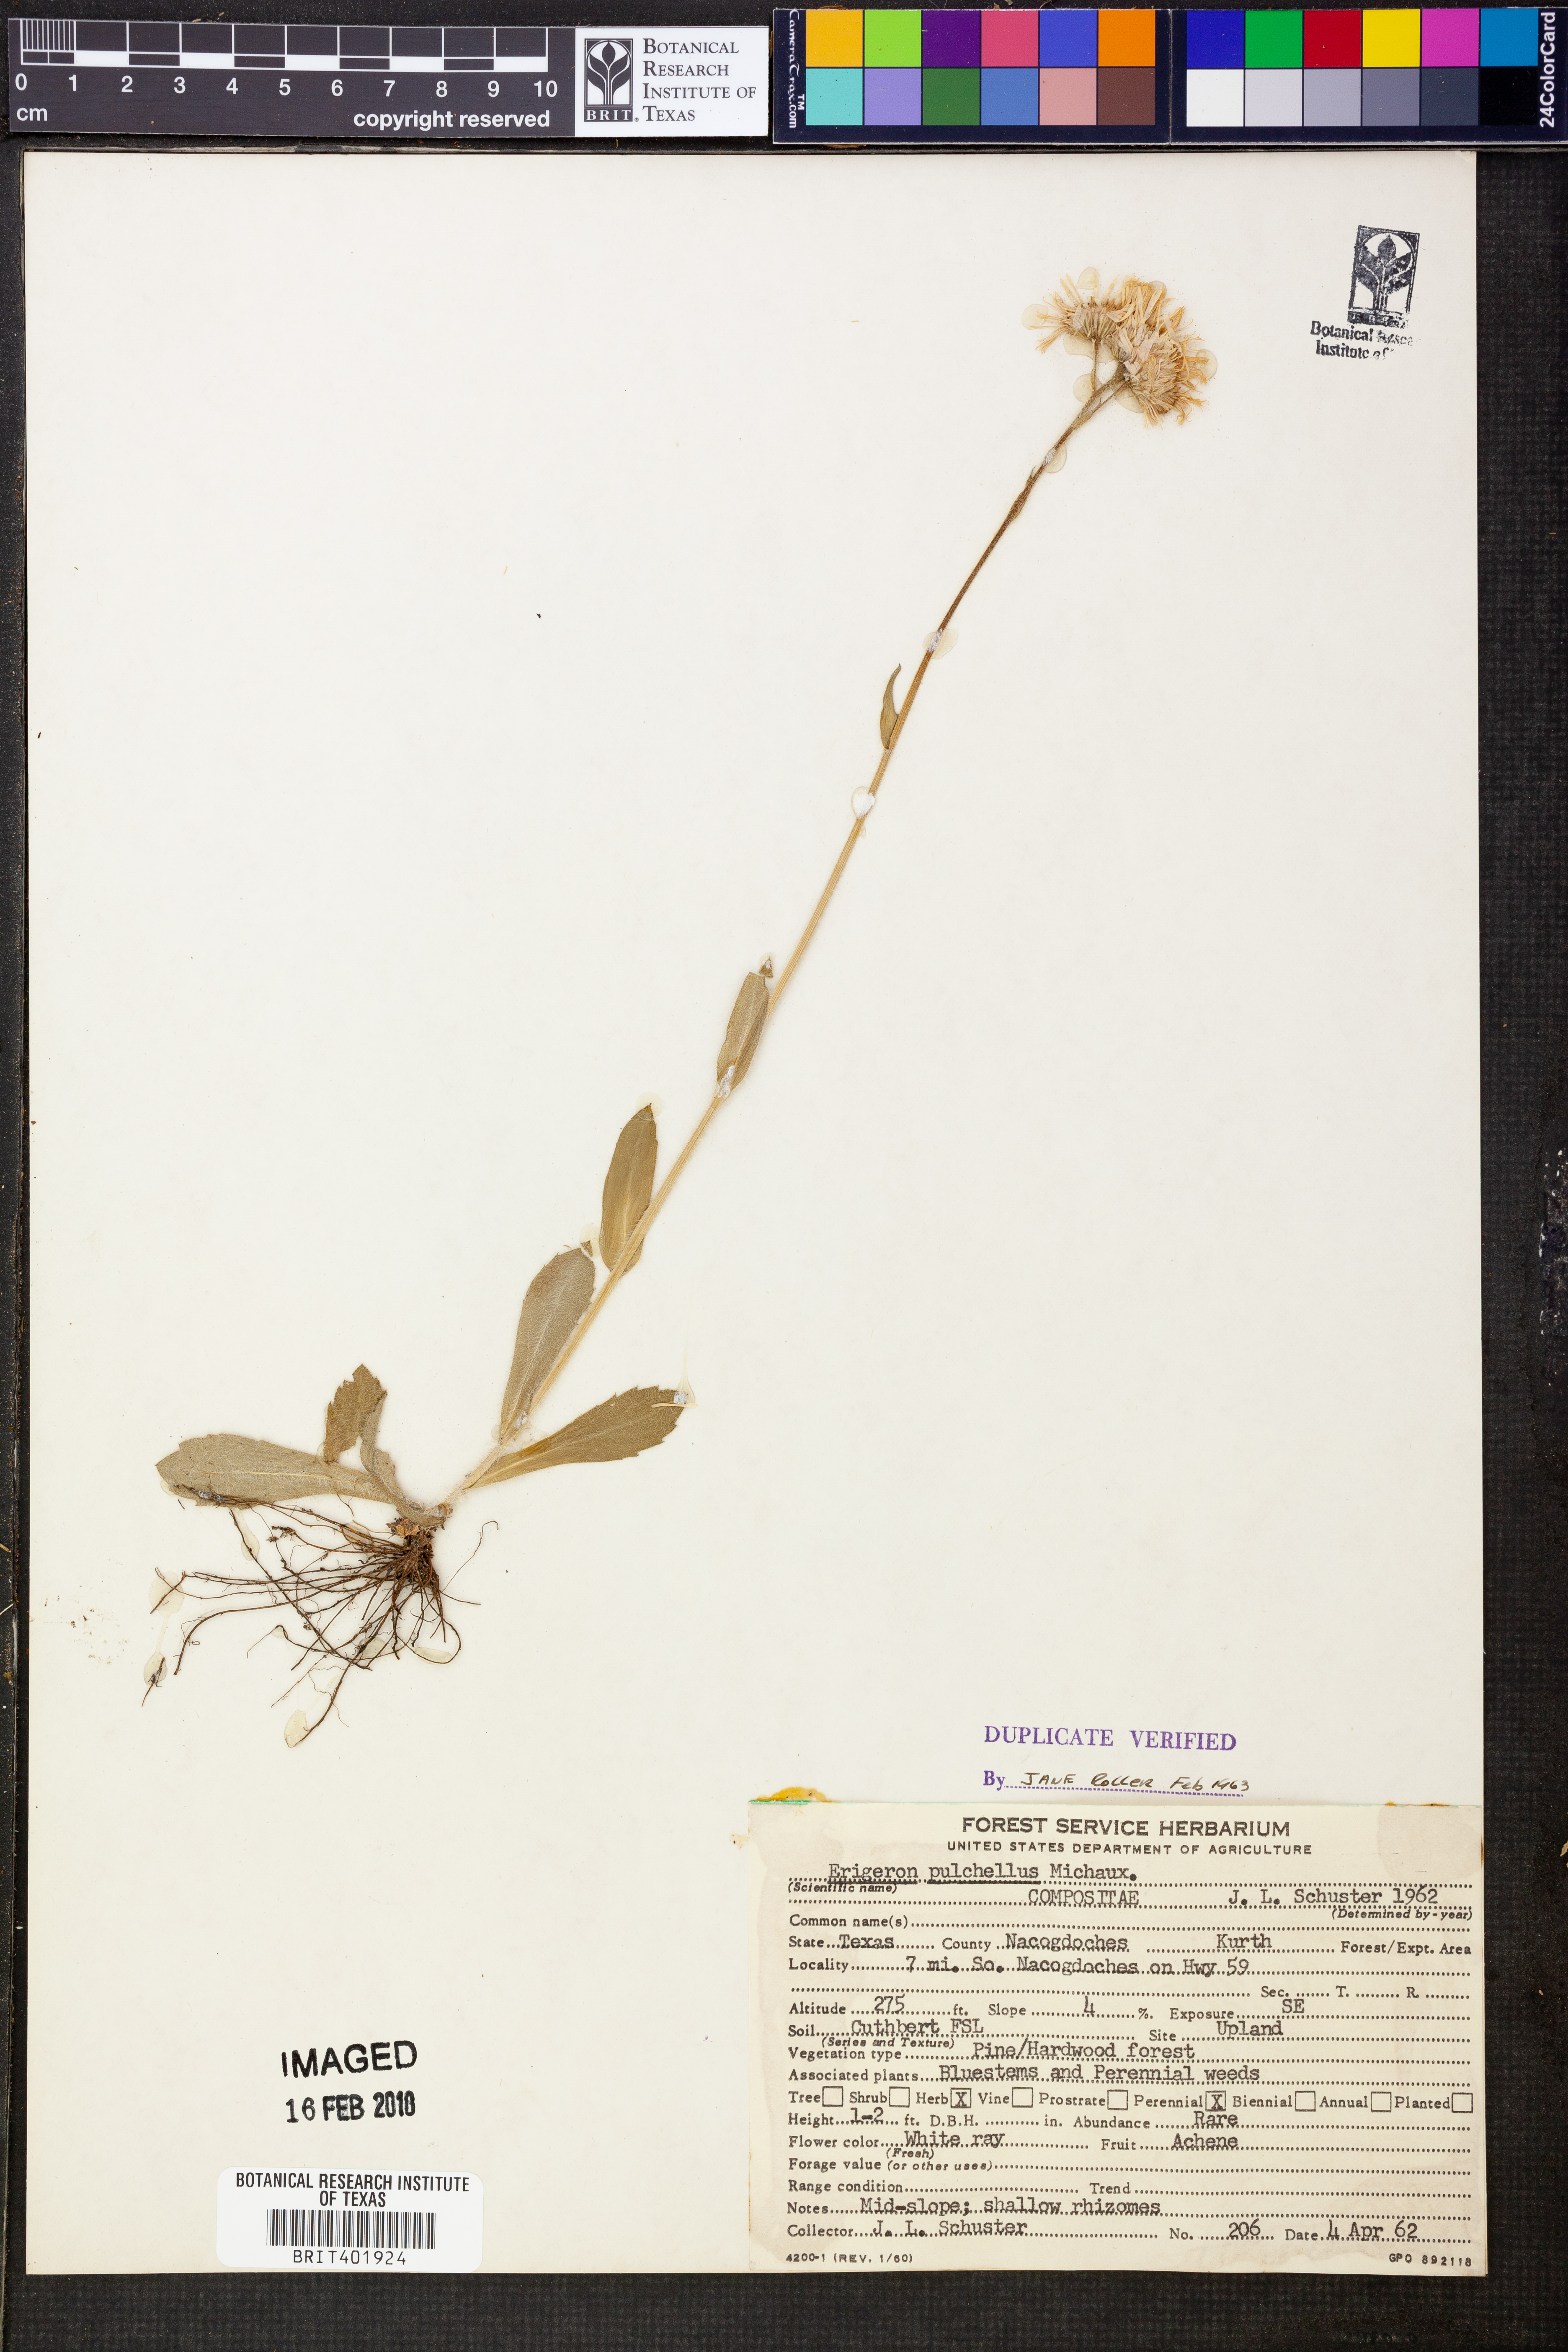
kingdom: Plantae
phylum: Tracheophyta
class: Magnoliopsida
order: Asterales
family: Asteraceae
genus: Erigeron
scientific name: Erigeron pulchellus
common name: Hairy fleabane
